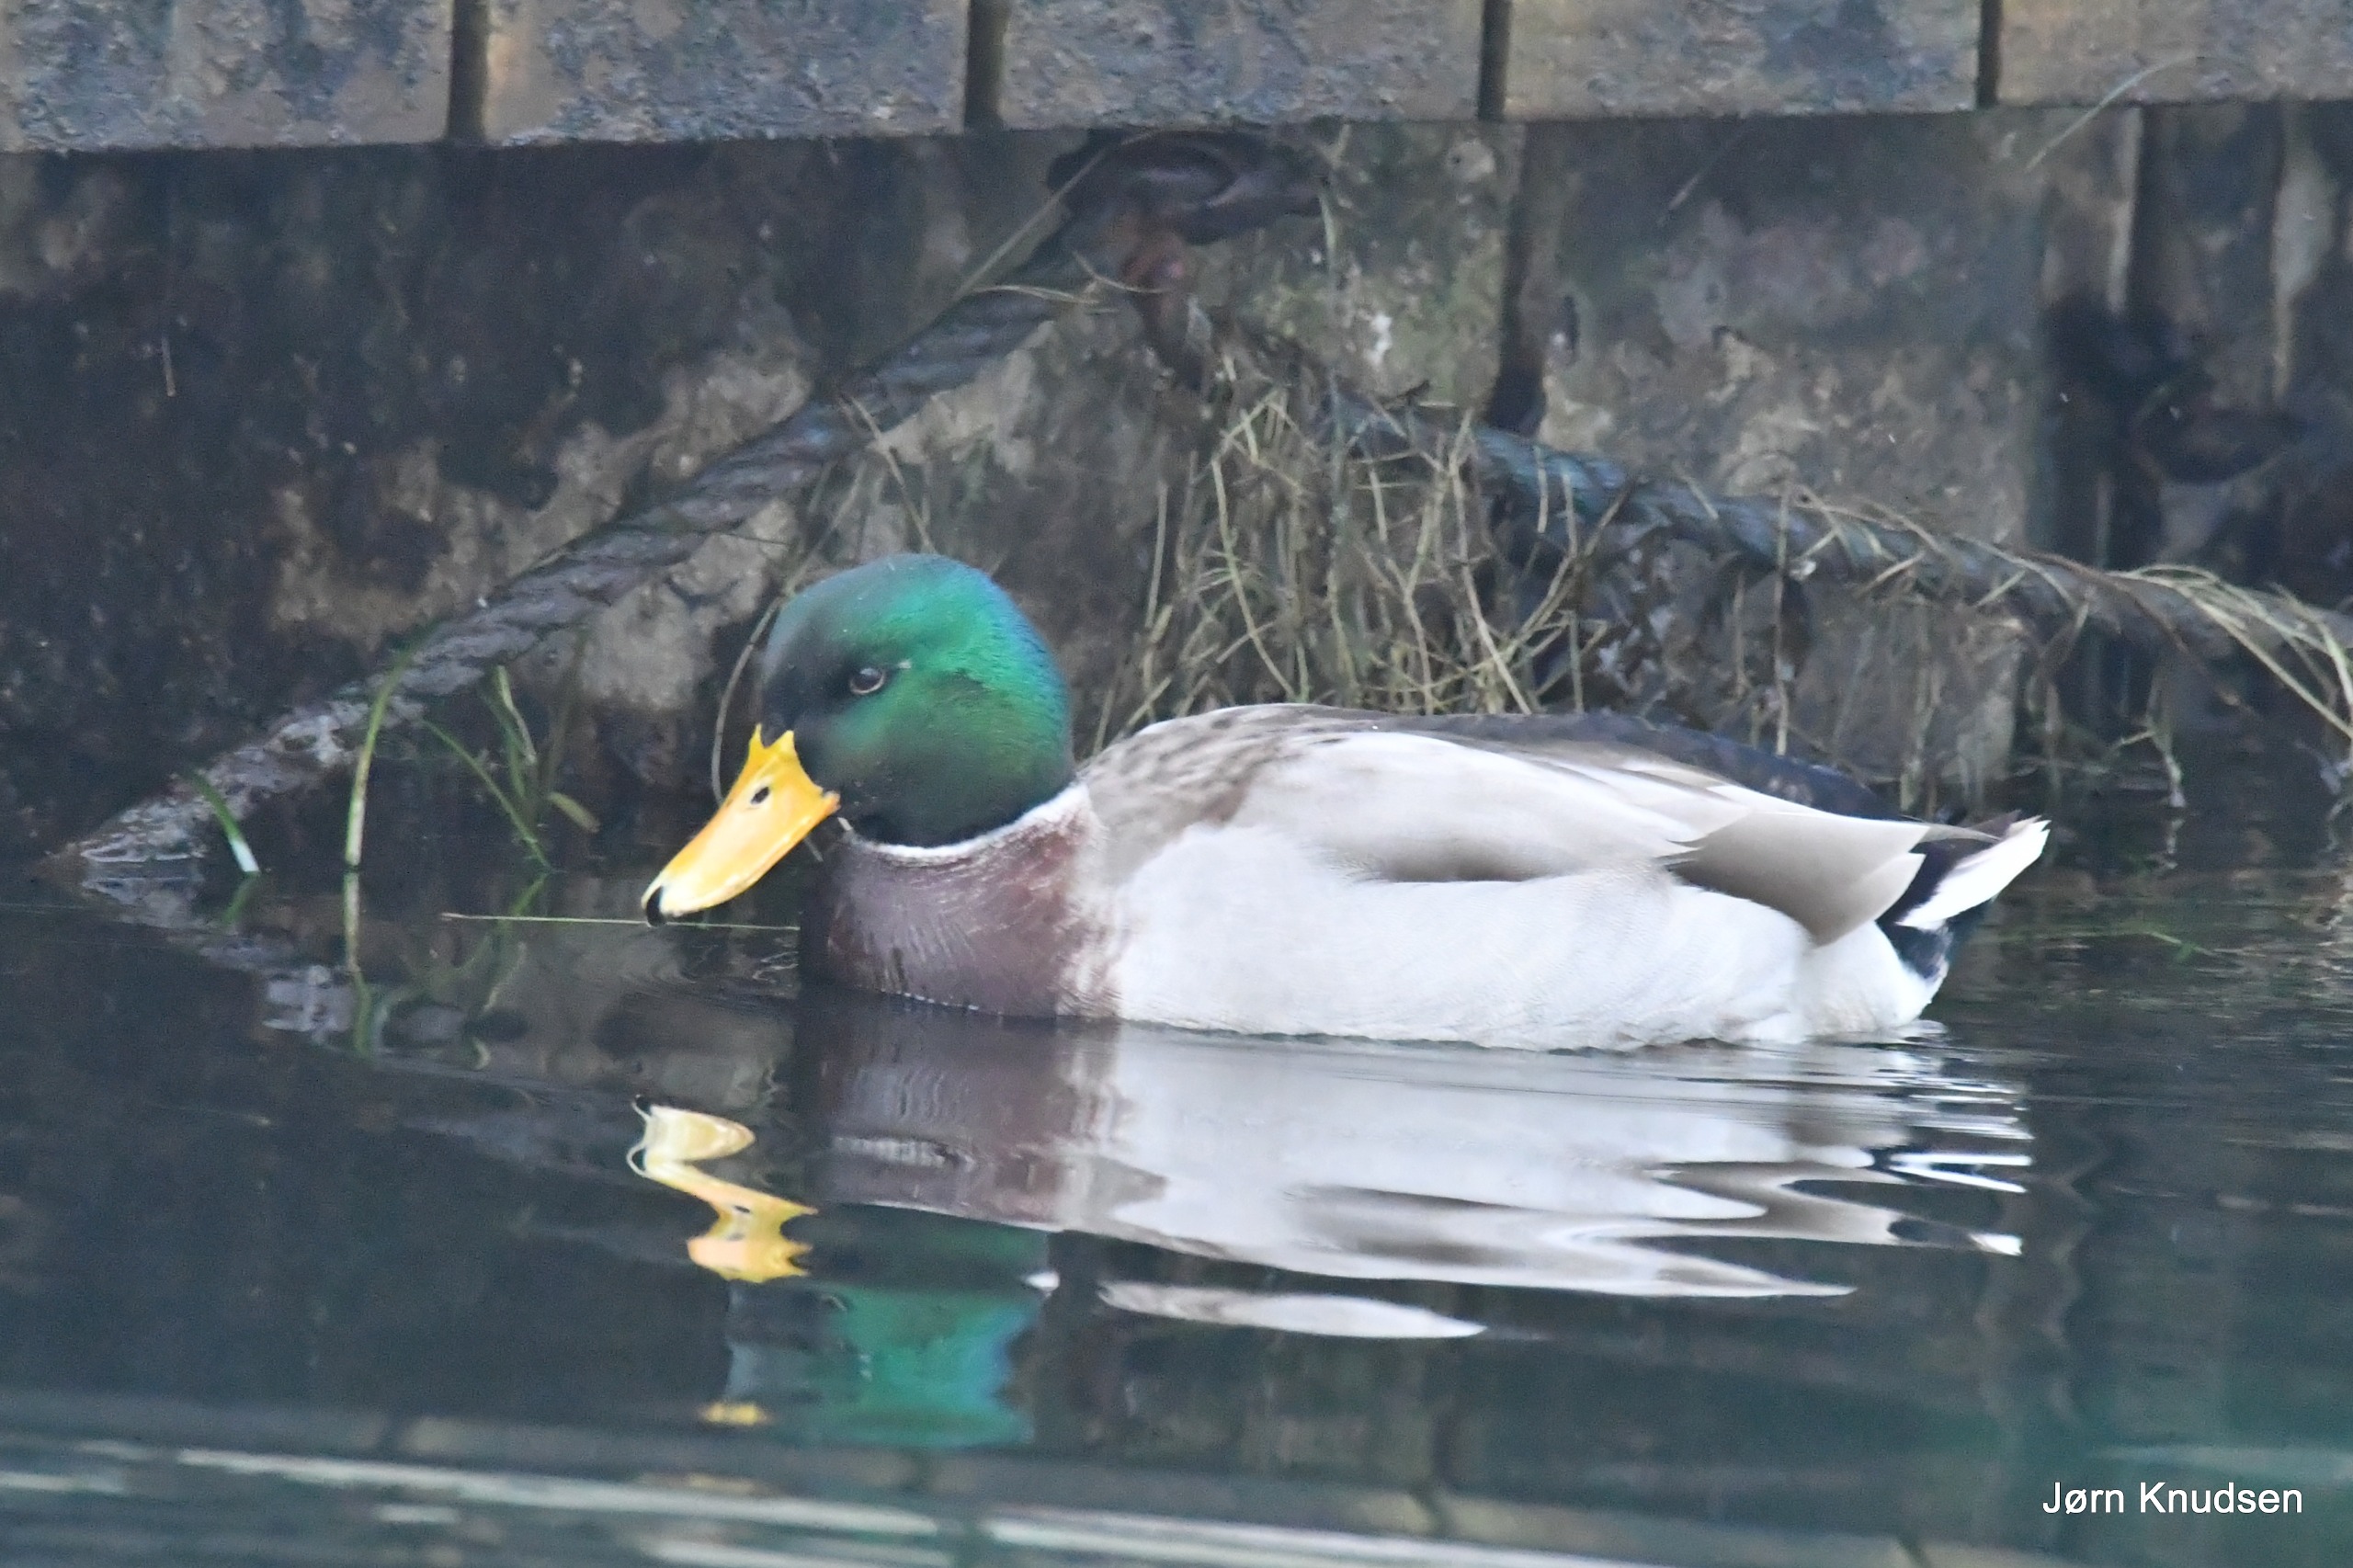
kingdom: Animalia
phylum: Chordata
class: Aves
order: Anseriformes
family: Anatidae
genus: Anas
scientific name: Anas platyrhynchos
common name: Gråand
